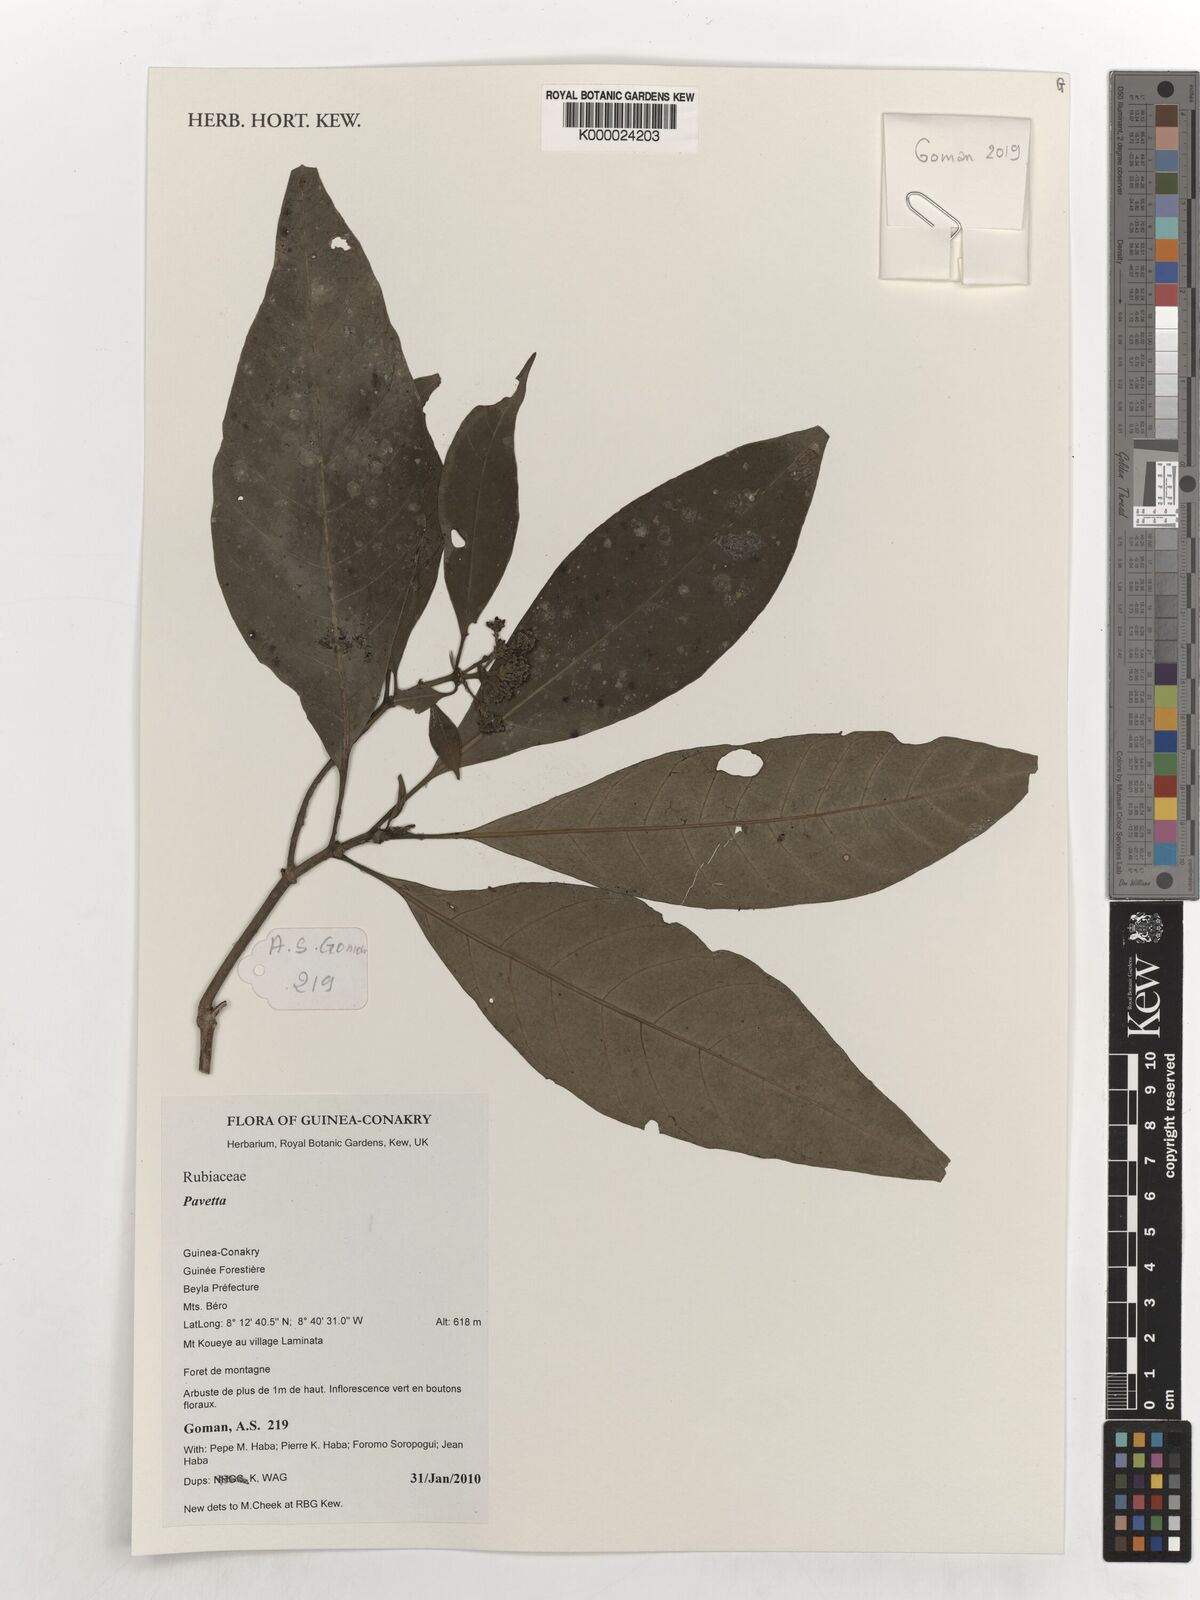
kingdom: Plantae
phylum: Tracheophyta
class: Magnoliopsida
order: Gentianales
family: Rubiaceae
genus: Pavetta
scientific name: Pavetta
